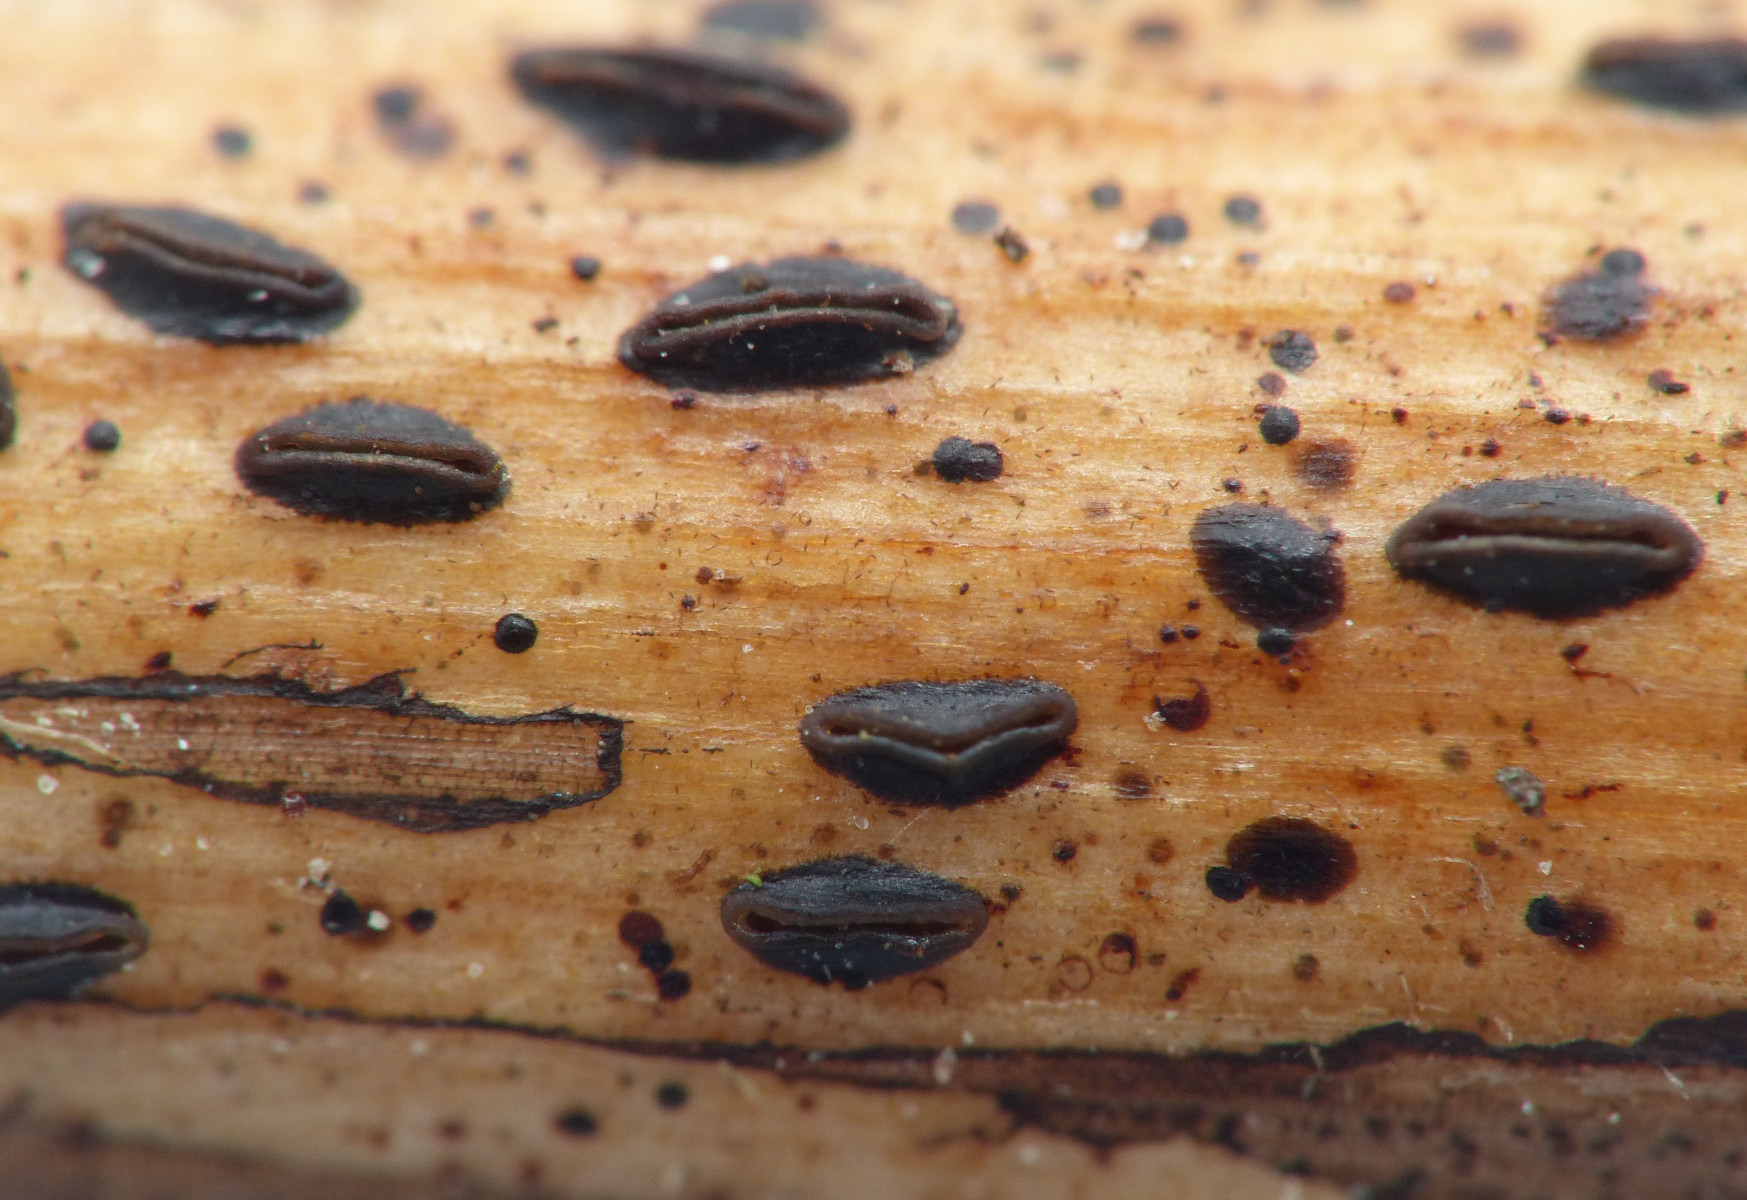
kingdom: Fungi
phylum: Ascomycota
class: Leotiomycetes
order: Rhytismatales
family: Rhytismataceae
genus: Hypoderma
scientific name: Hypoderma commune
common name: urte-fureplet
